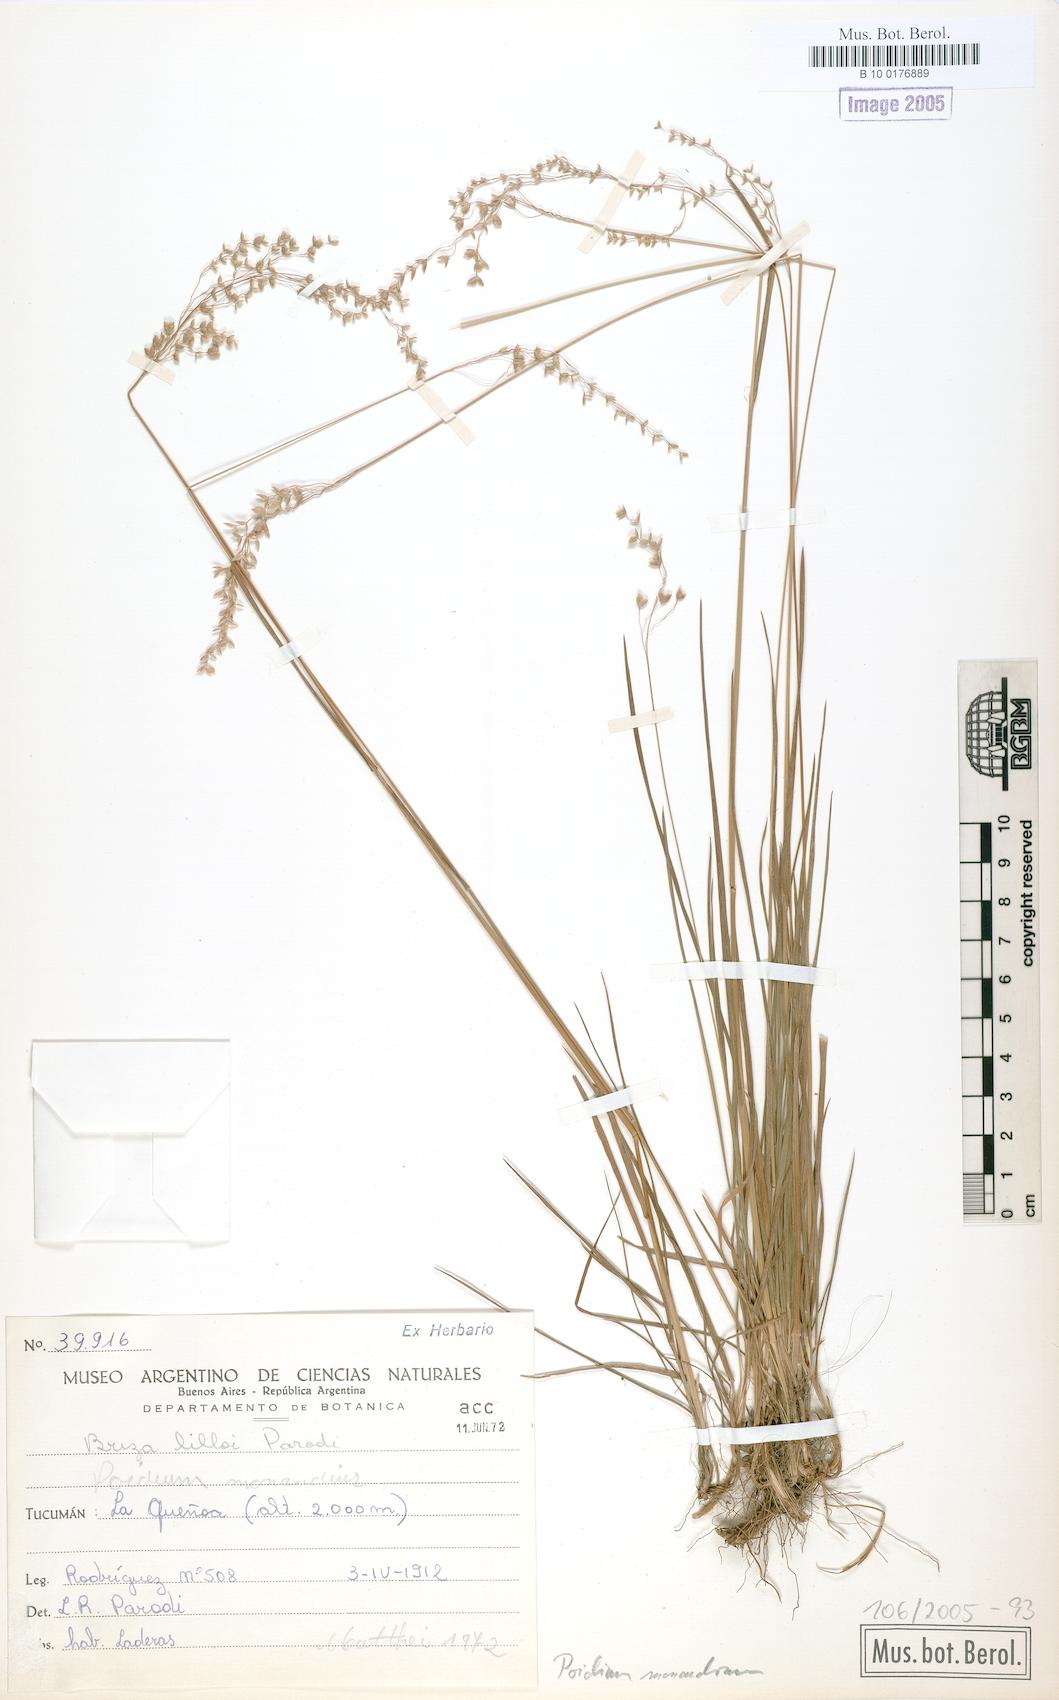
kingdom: Plantae
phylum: Tracheophyta
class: Liliopsida
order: Poales
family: Poaceae
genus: Poidium
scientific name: Poidium monandrum
